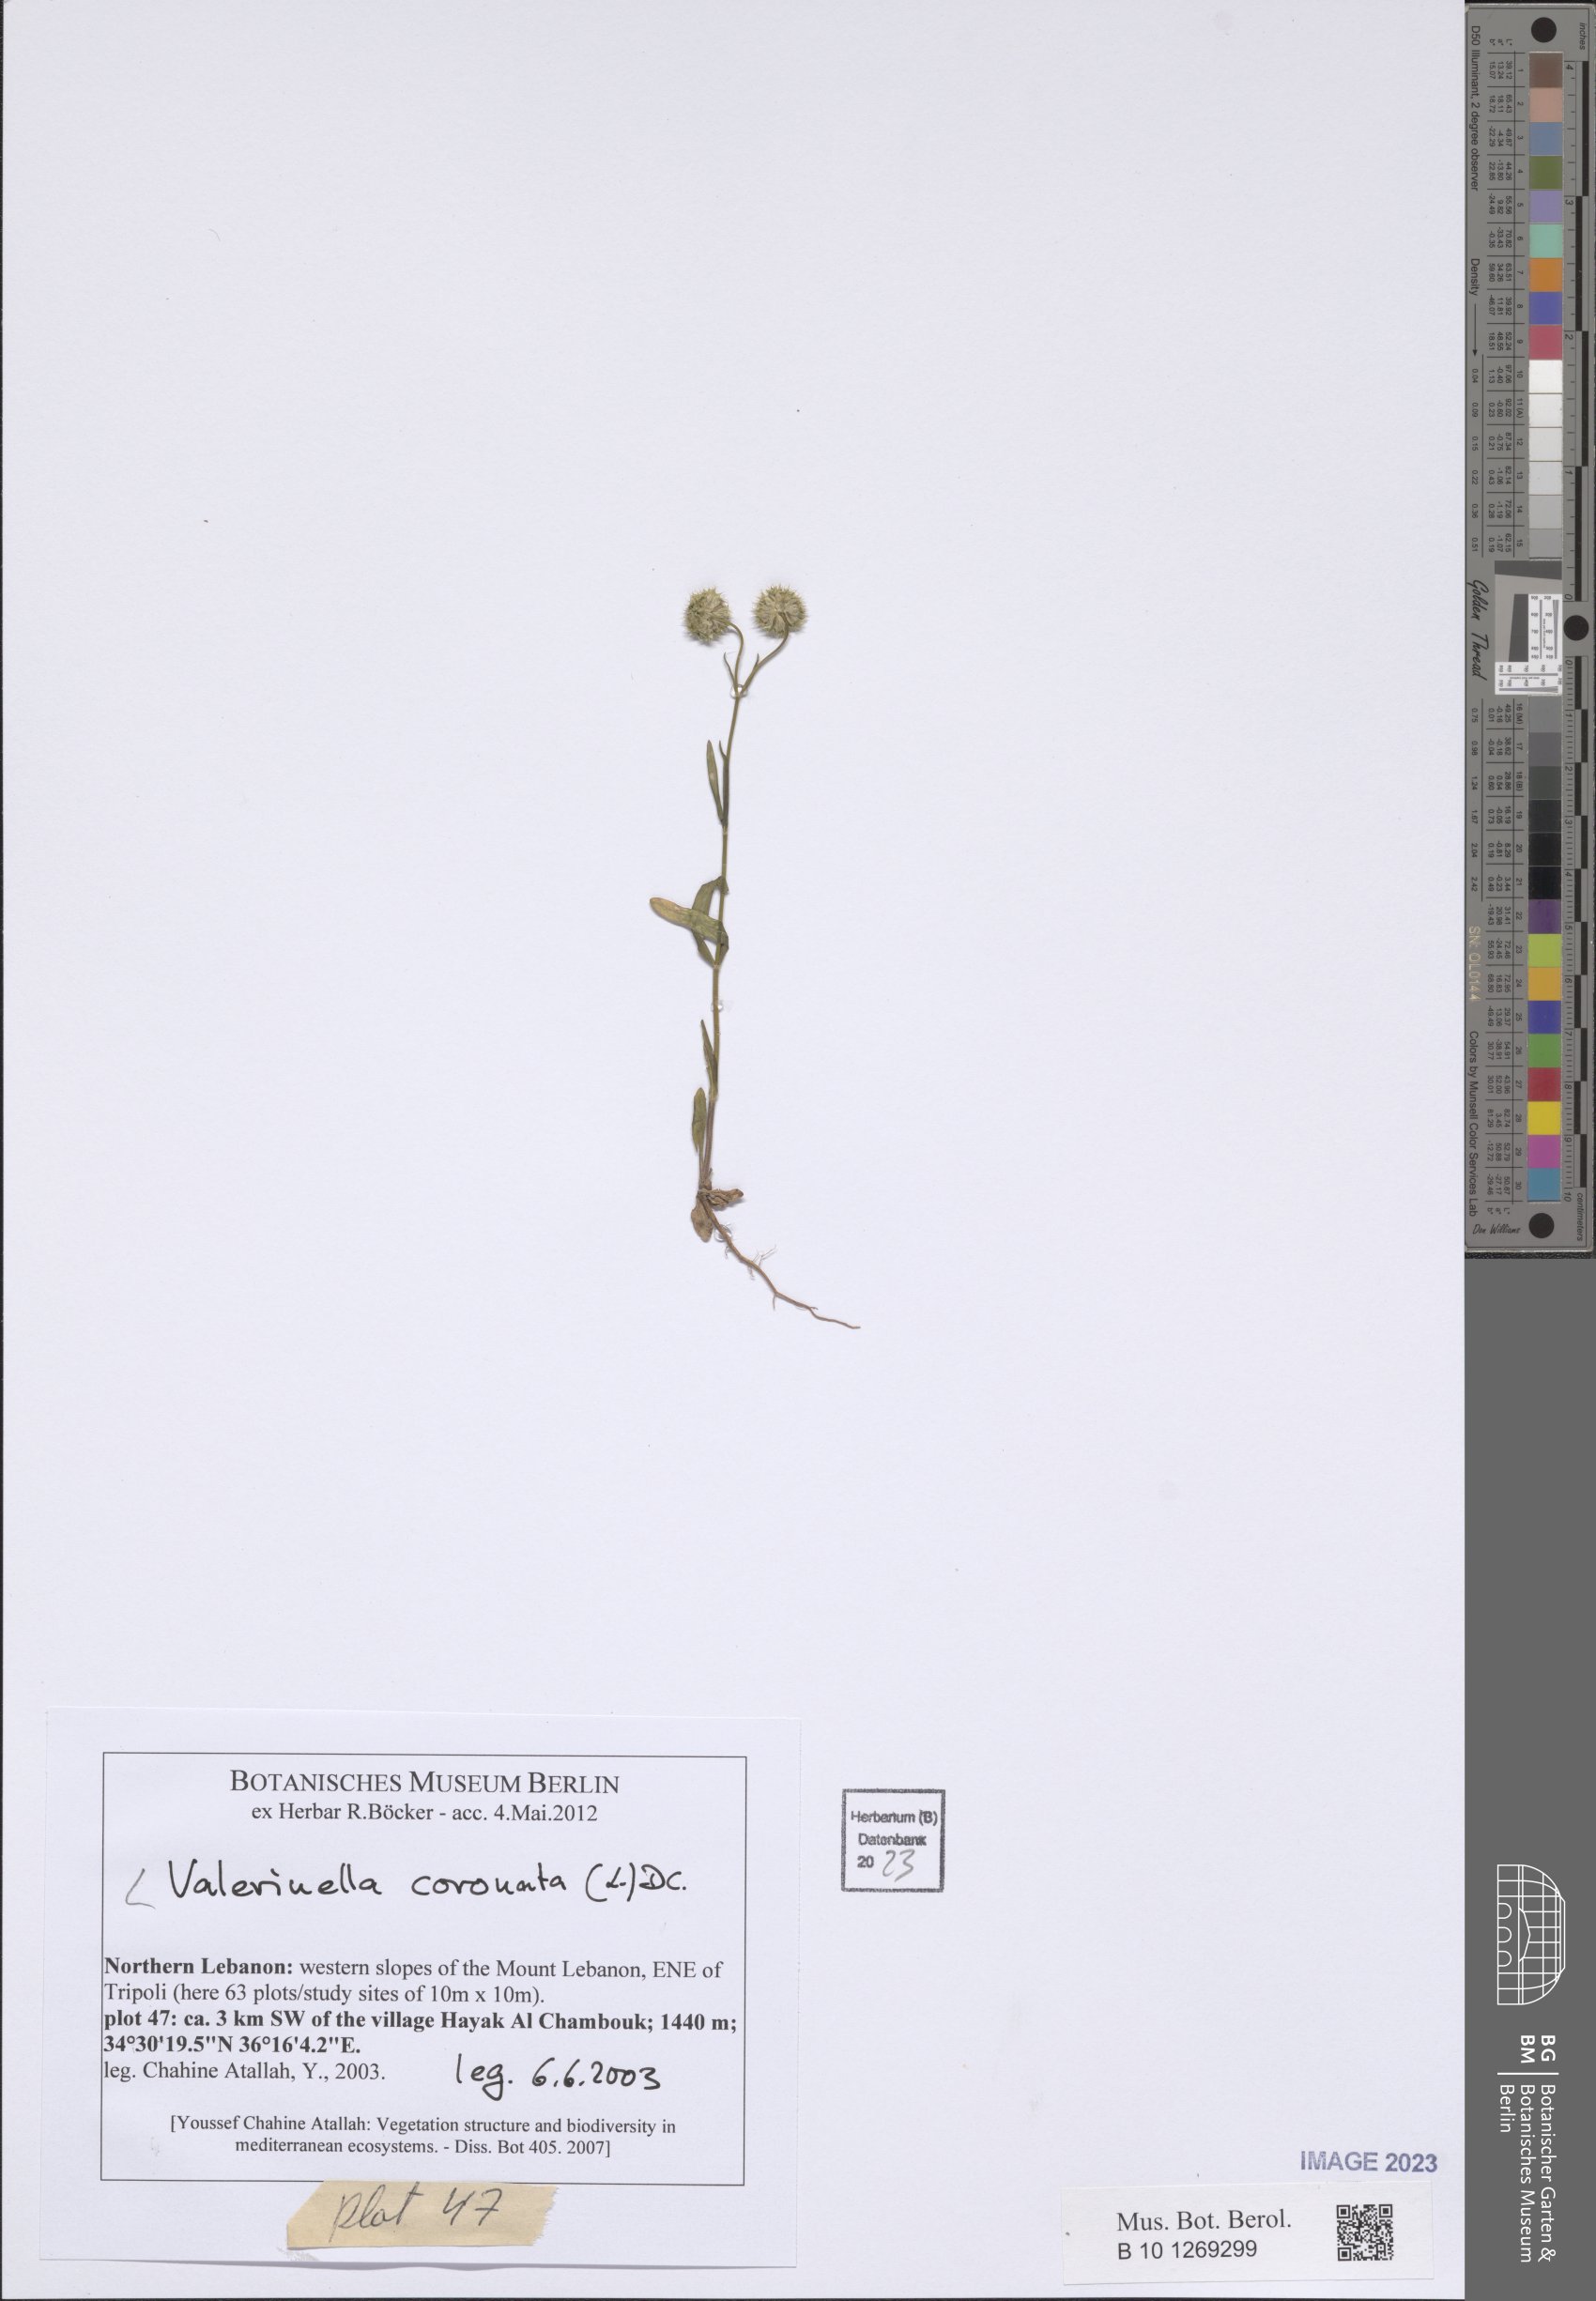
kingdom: Plantae
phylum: Tracheophyta
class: Magnoliopsida
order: Dipsacales
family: Caprifoliaceae
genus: Valerianella
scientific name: Valerianella coronata
